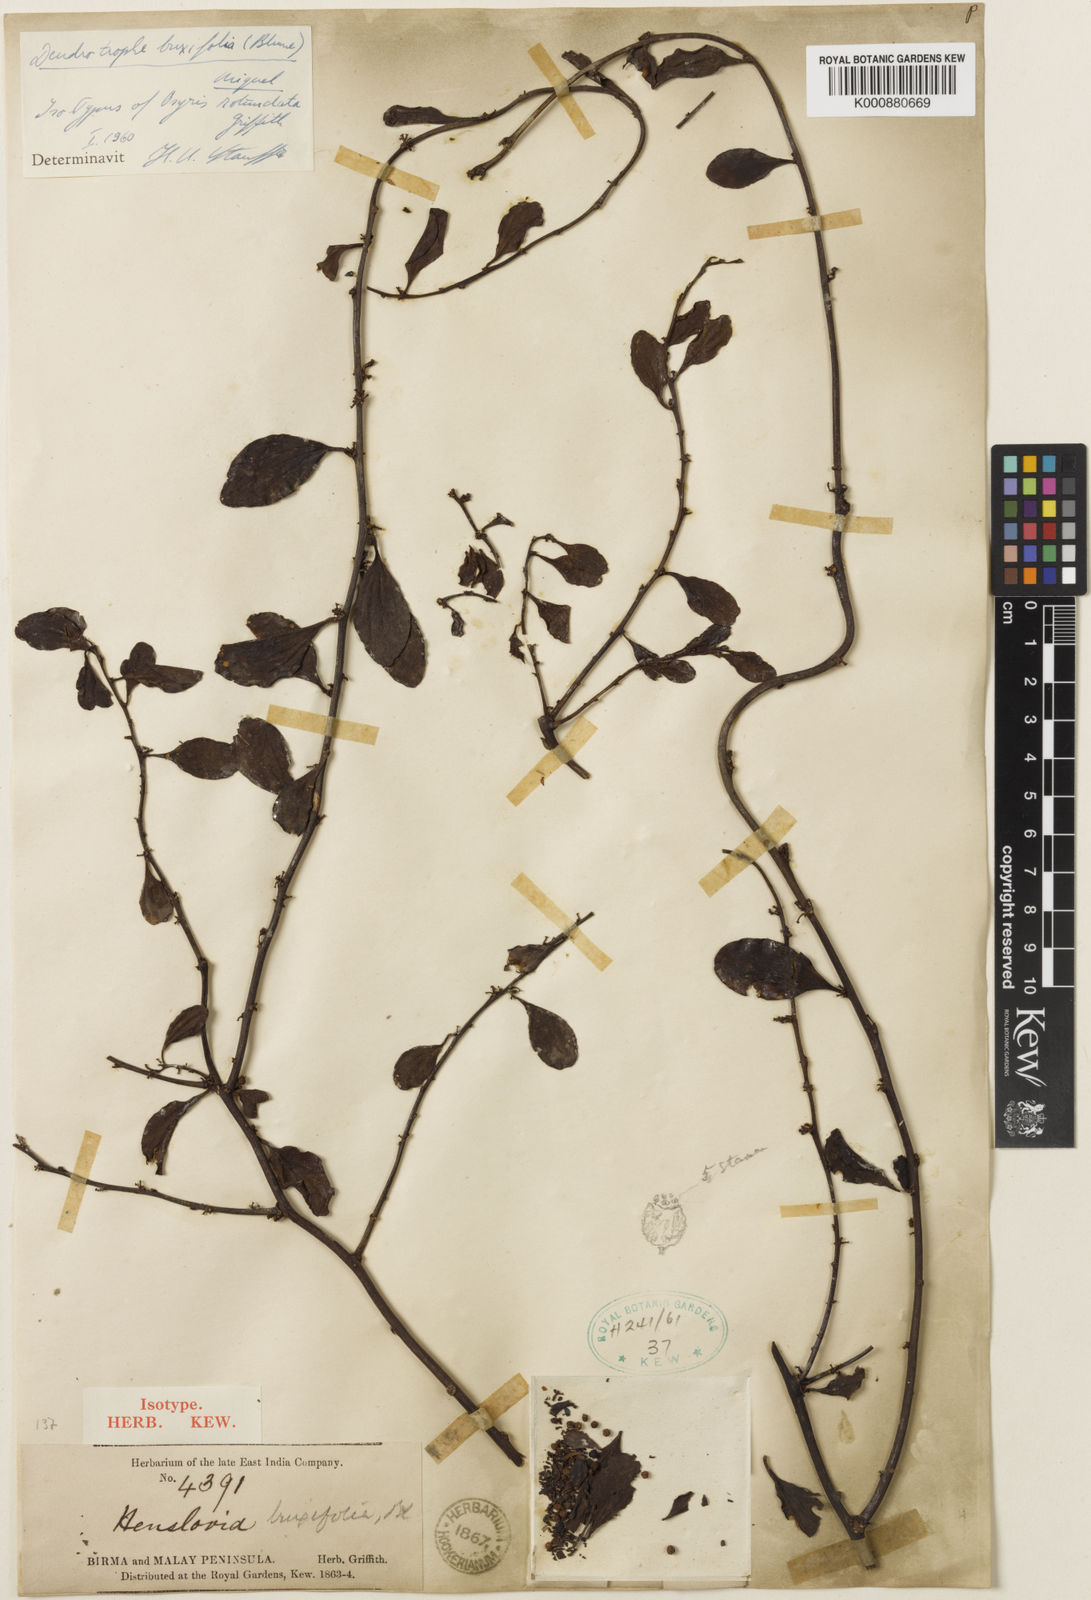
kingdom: Plantae
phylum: Tracheophyta
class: Magnoliopsida
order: Santalales
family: Amphorogynaceae
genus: Dendrotrophe
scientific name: Dendrotrophe buxifolia
